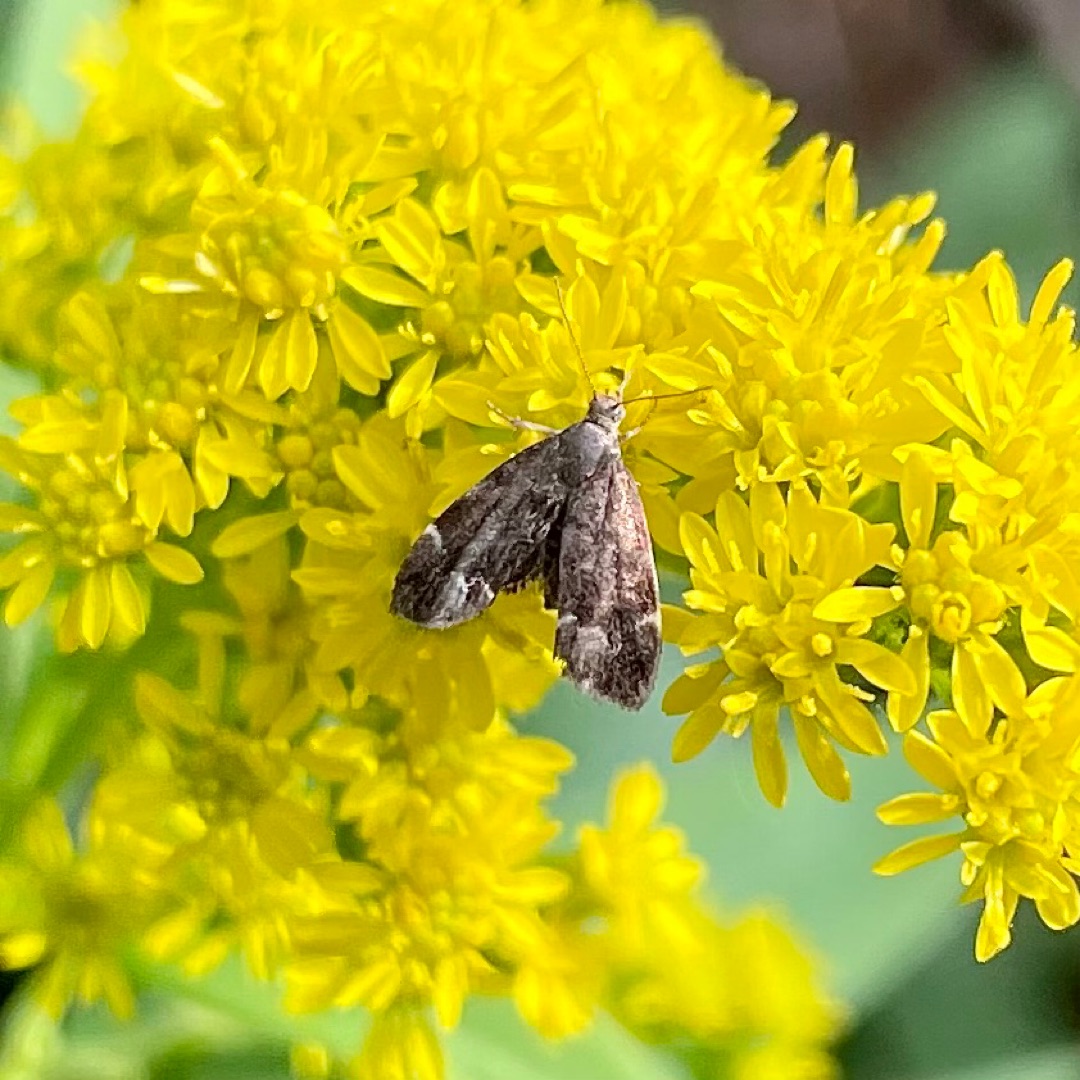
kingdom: Animalia
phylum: Arthropoda
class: Insecta
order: Lepidoptera
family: Choreutidae
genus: Anthophila
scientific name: Anthophila fabriciana
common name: Bredvinget nældevikler
